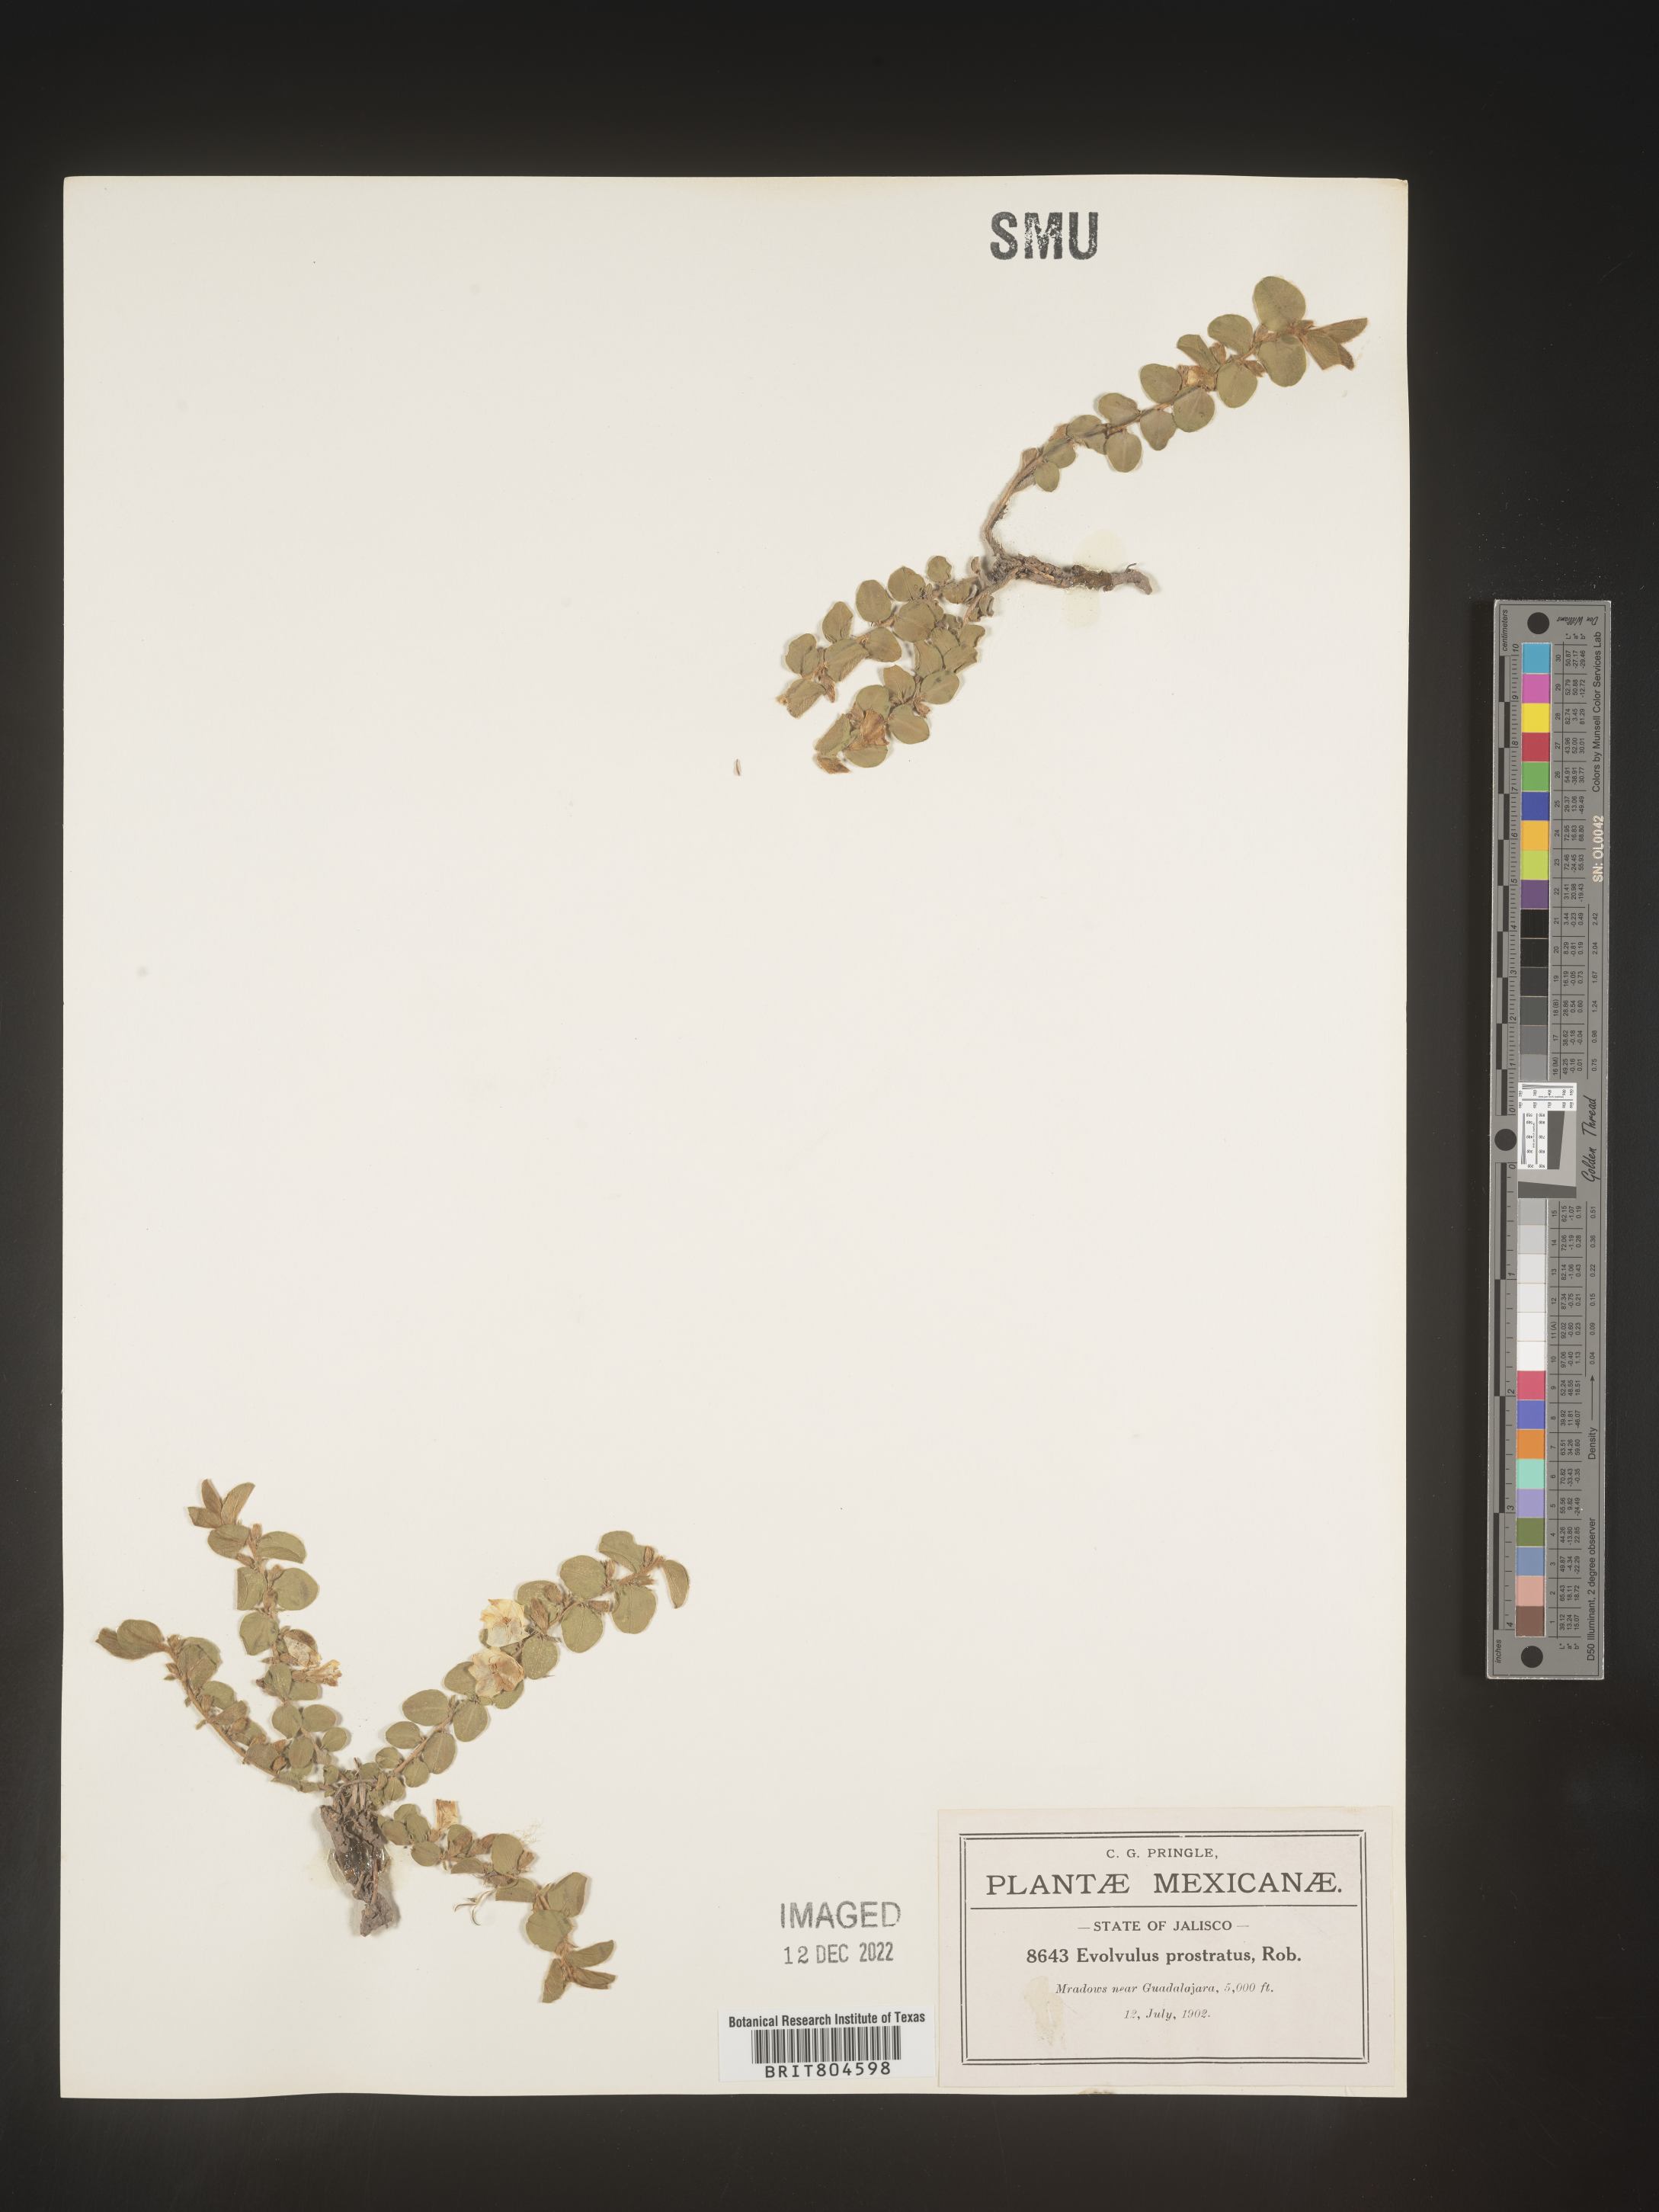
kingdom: Plantae
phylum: Tracheophyta
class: Magnoliopsida
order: Solanales
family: Convolvulaceae
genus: Evolvulus
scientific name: Evolvulus
